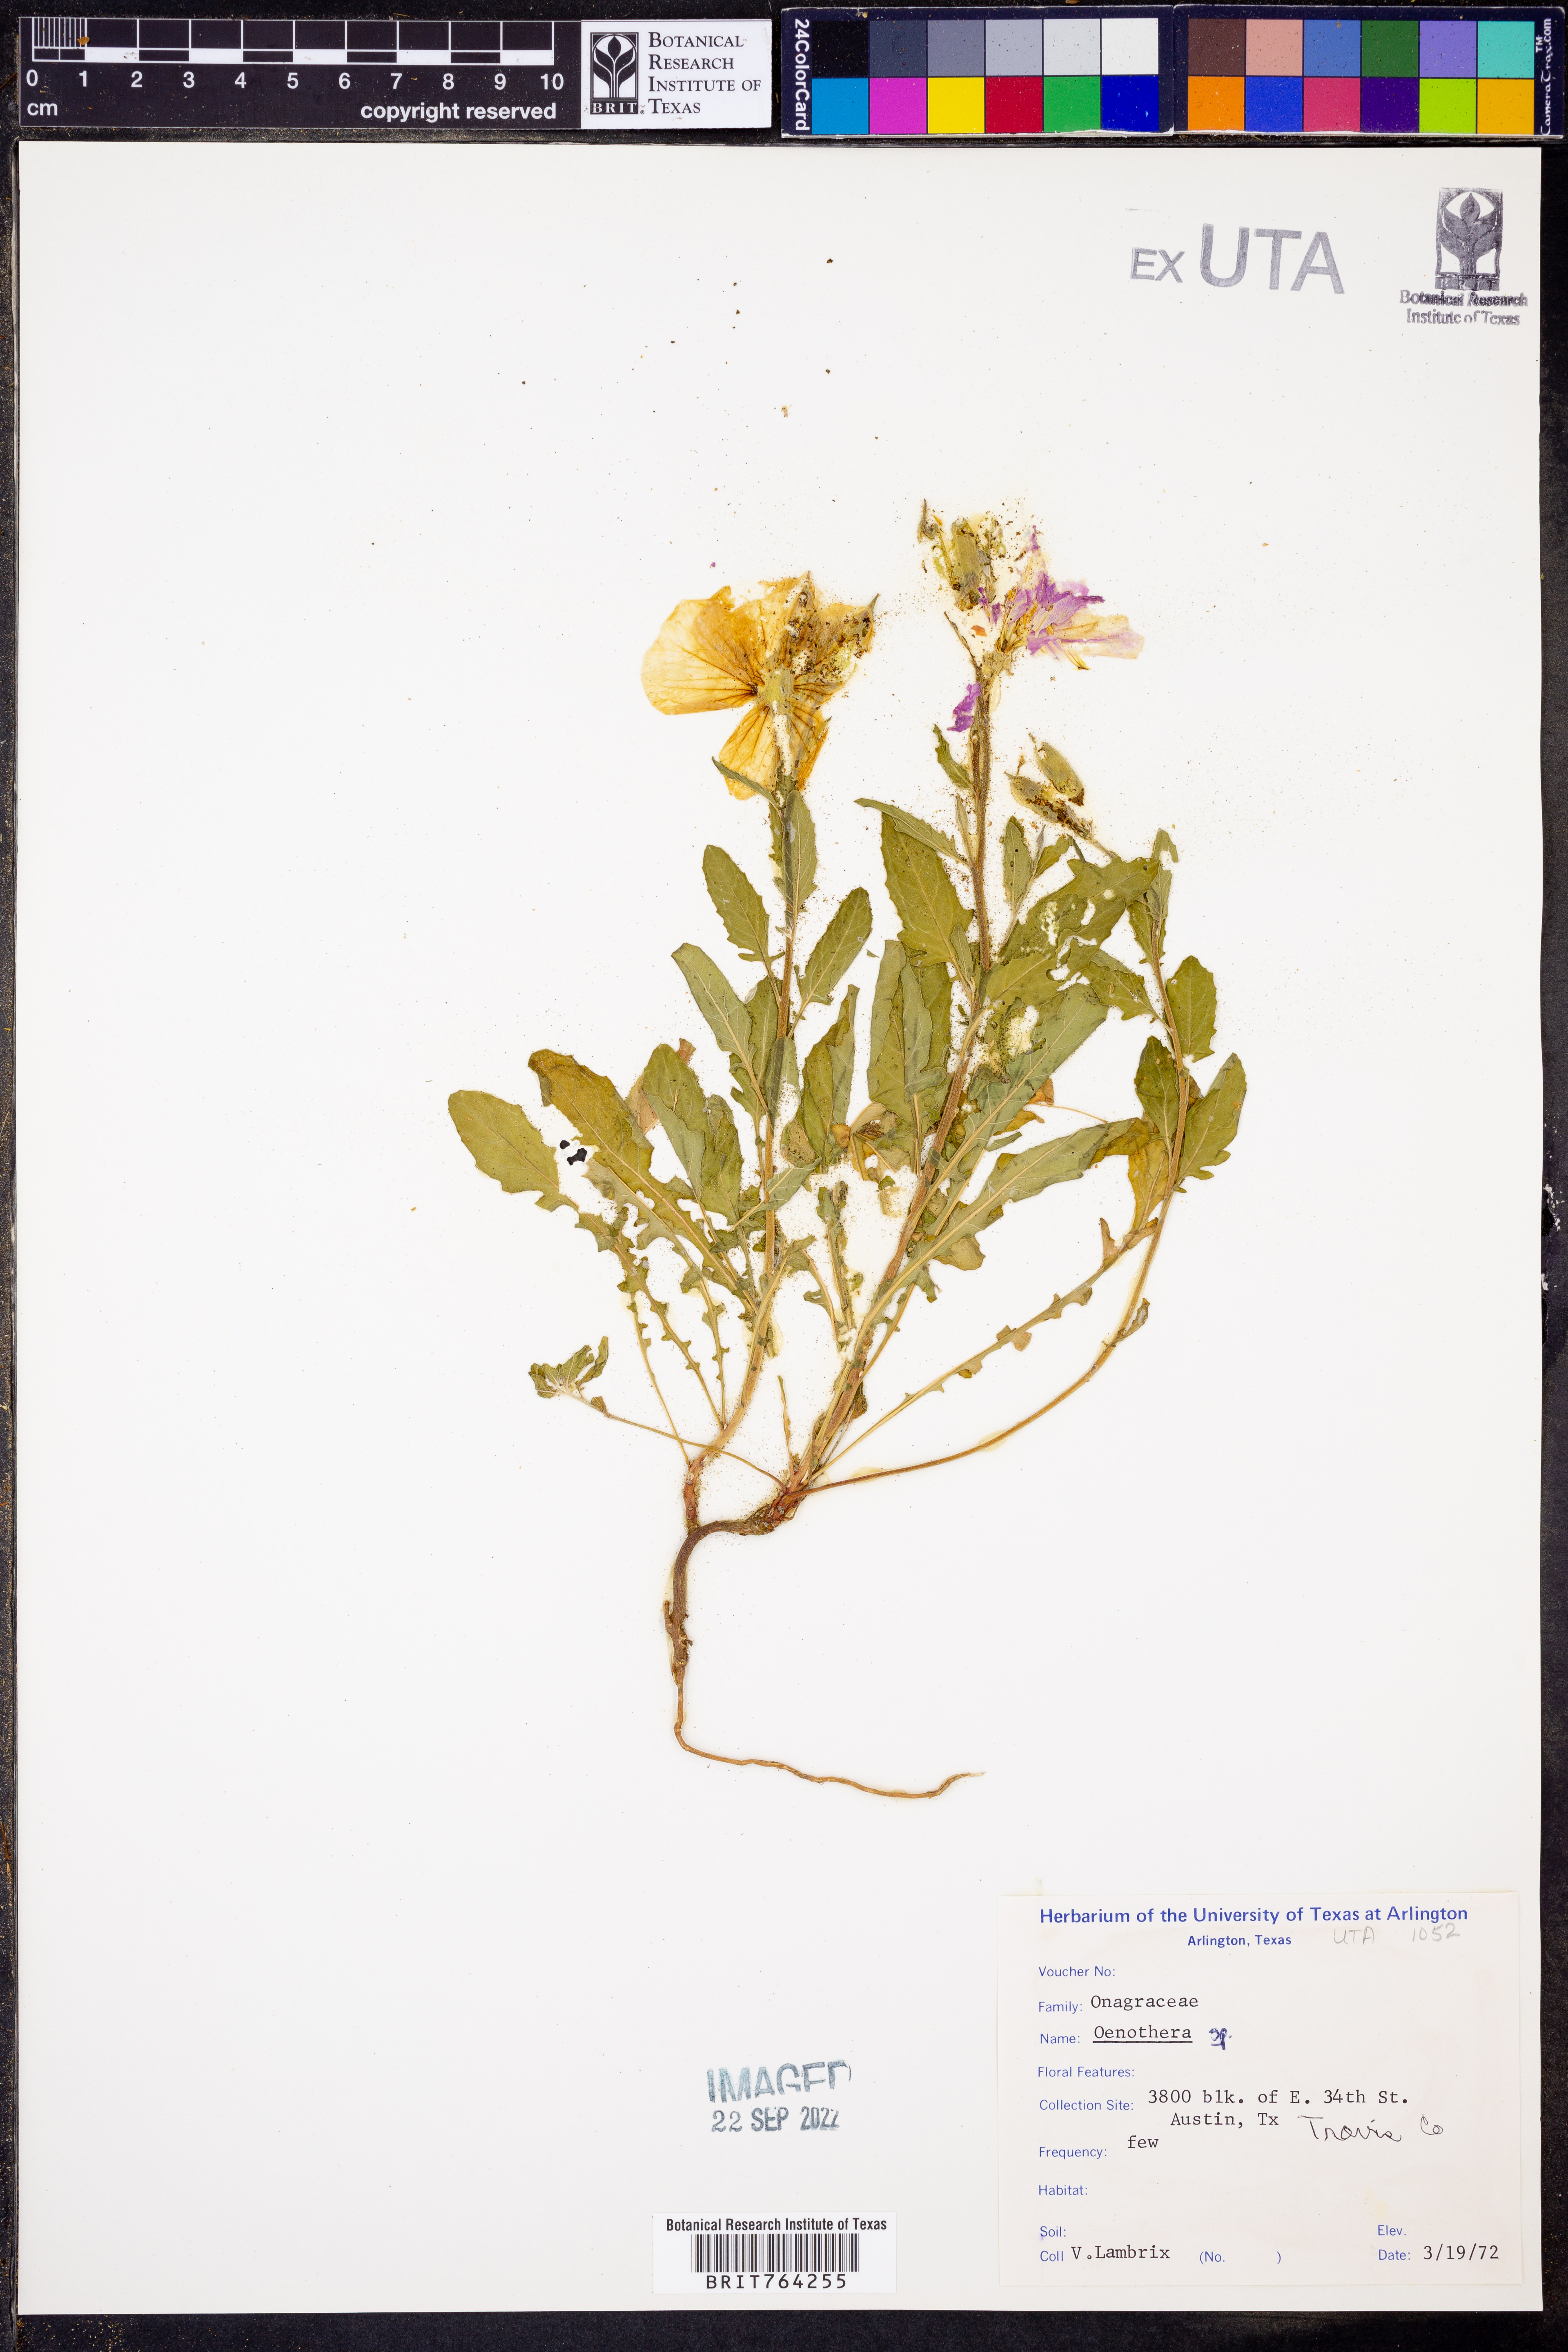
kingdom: Plantae
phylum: Tracheophyta
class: Magnoliopsida
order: Myrtales
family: Onagraceae
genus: Oenothera
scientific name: Oenothera
